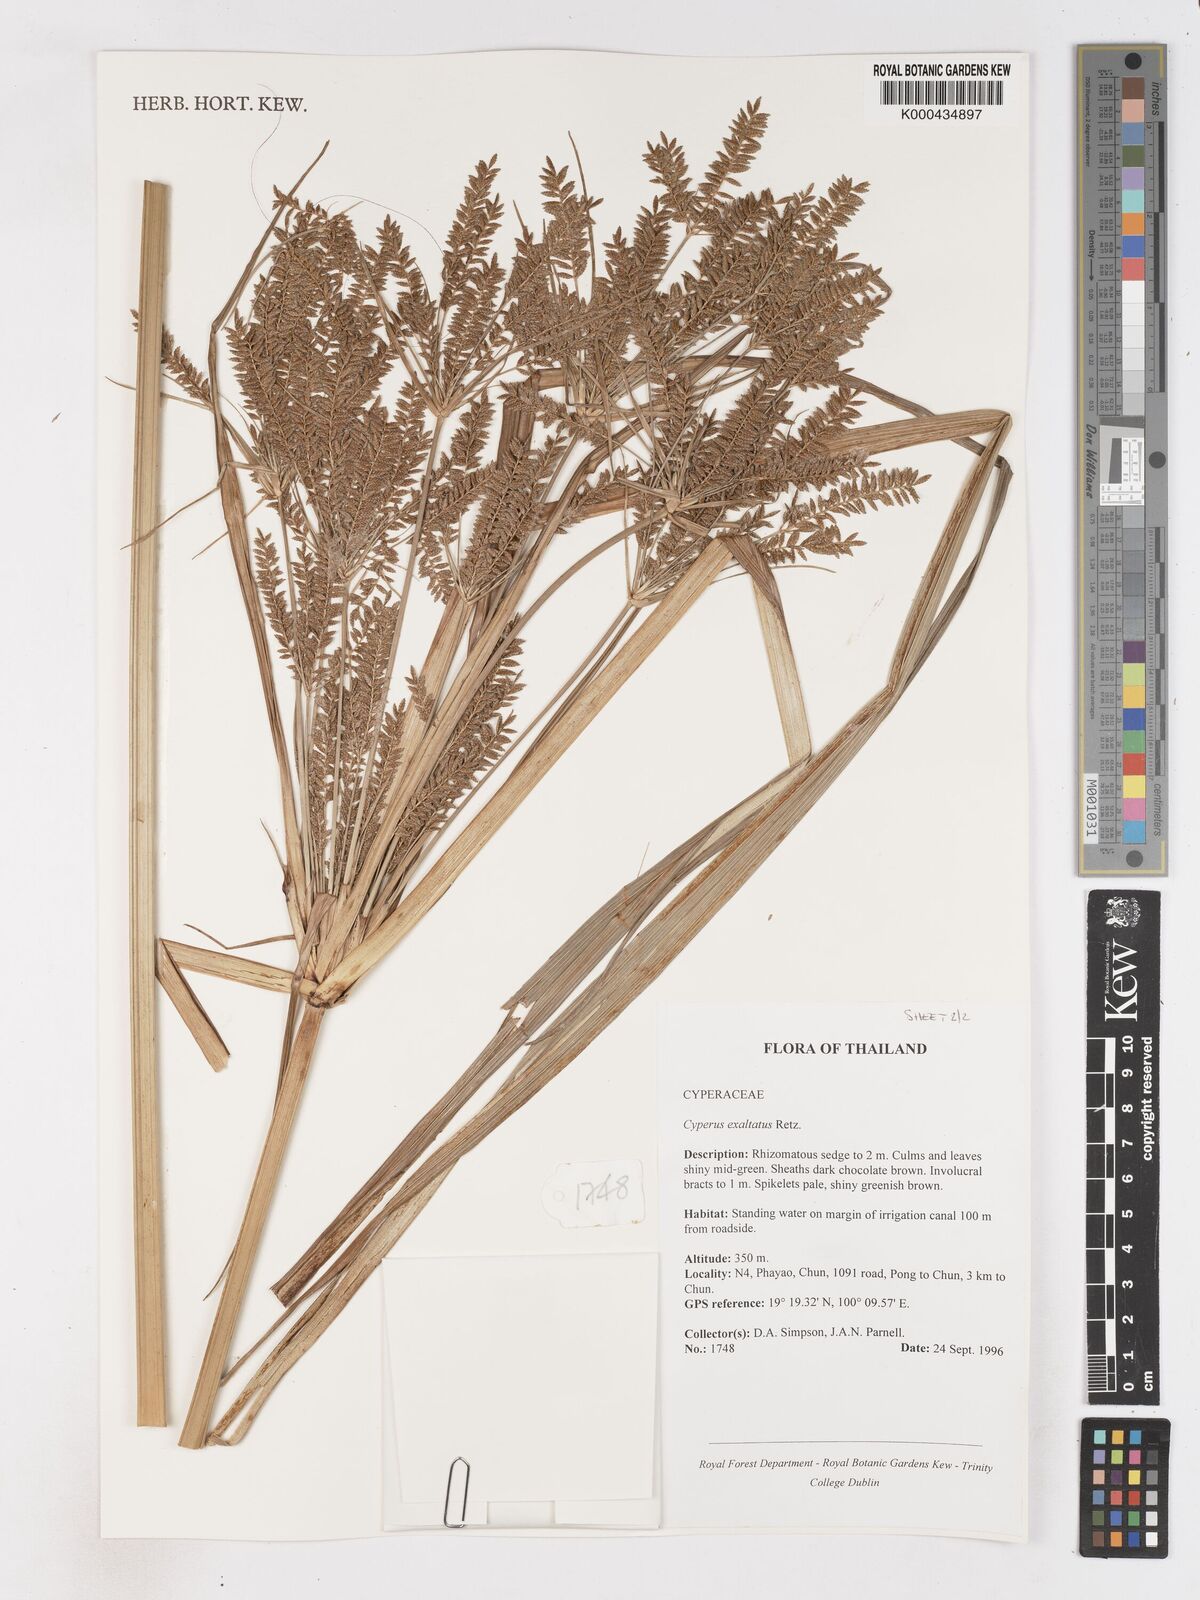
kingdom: Plantae
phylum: Tracheophyta
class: Liliopsida
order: Poales
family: Cyperaceae
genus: Cyperus
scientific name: Cyperus exaltatus
